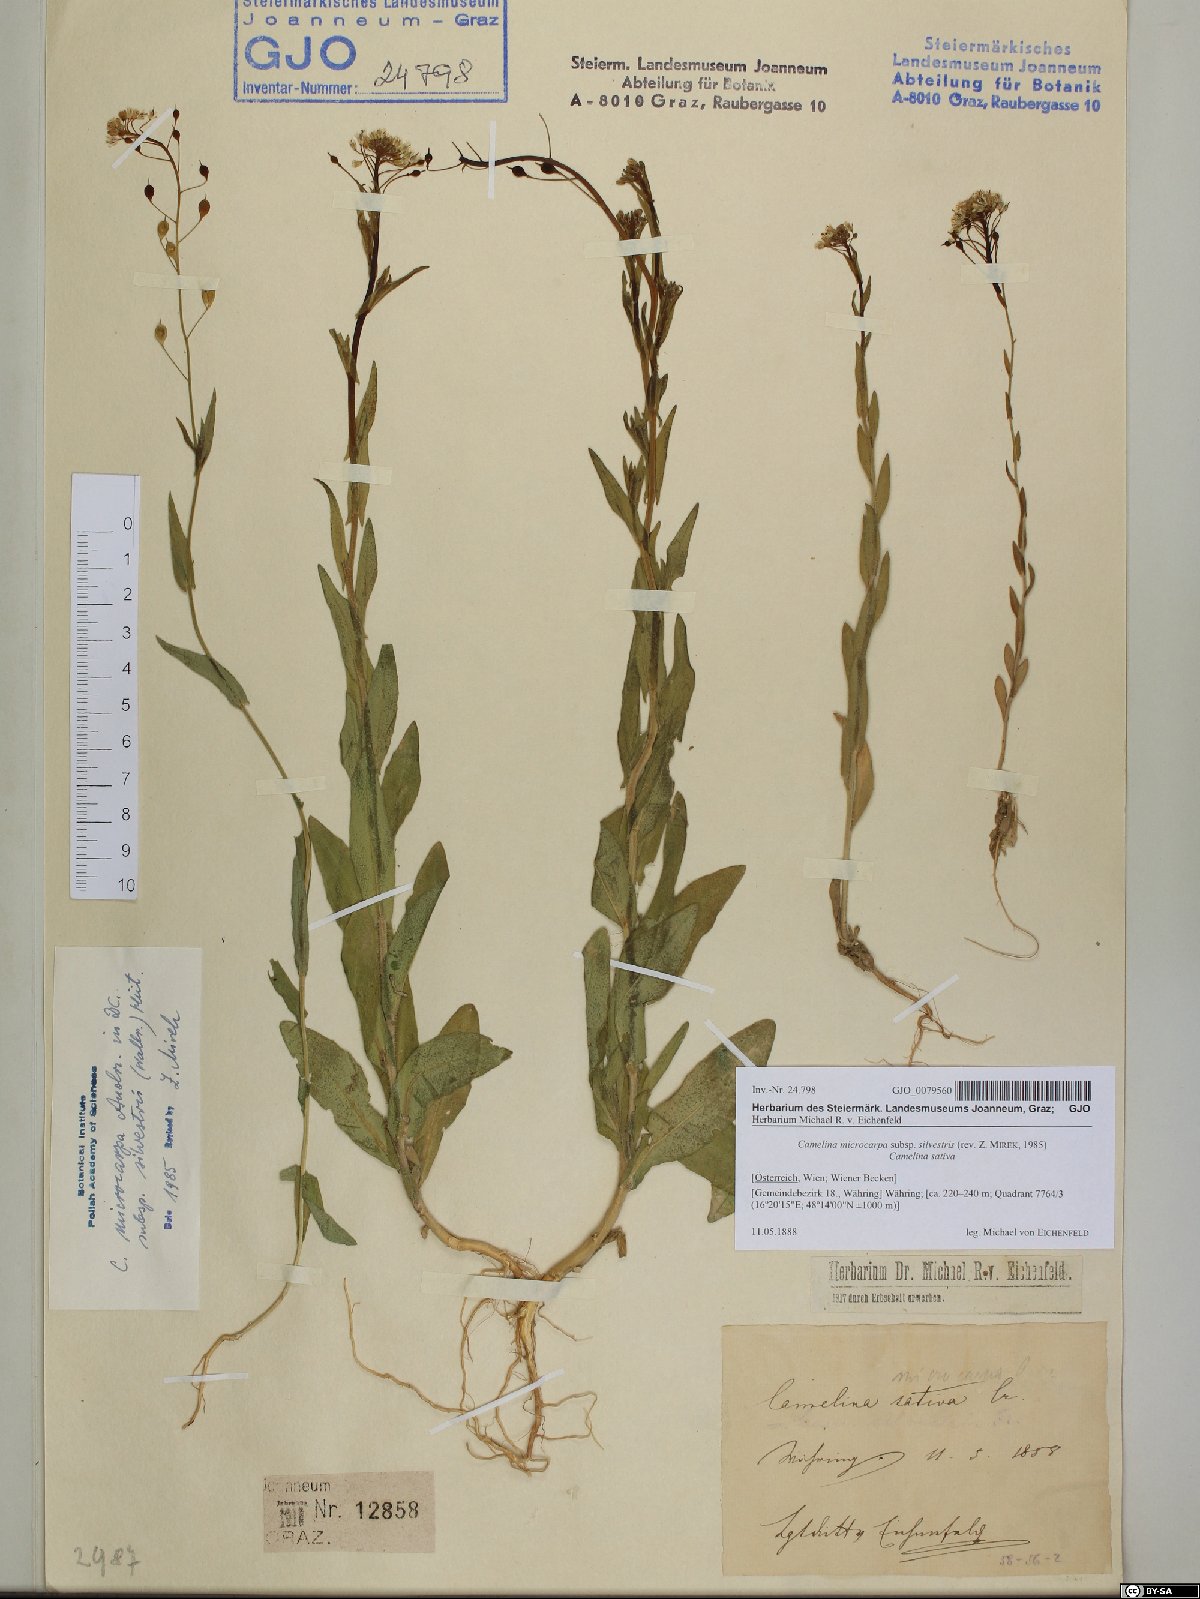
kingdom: Plantae
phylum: Tracheophyta
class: Magnoliopsida
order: Brassicales
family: Brassicaceae
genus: Camelina
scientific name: Camelina microcarpa
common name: Lesser gold-of-pleasure
